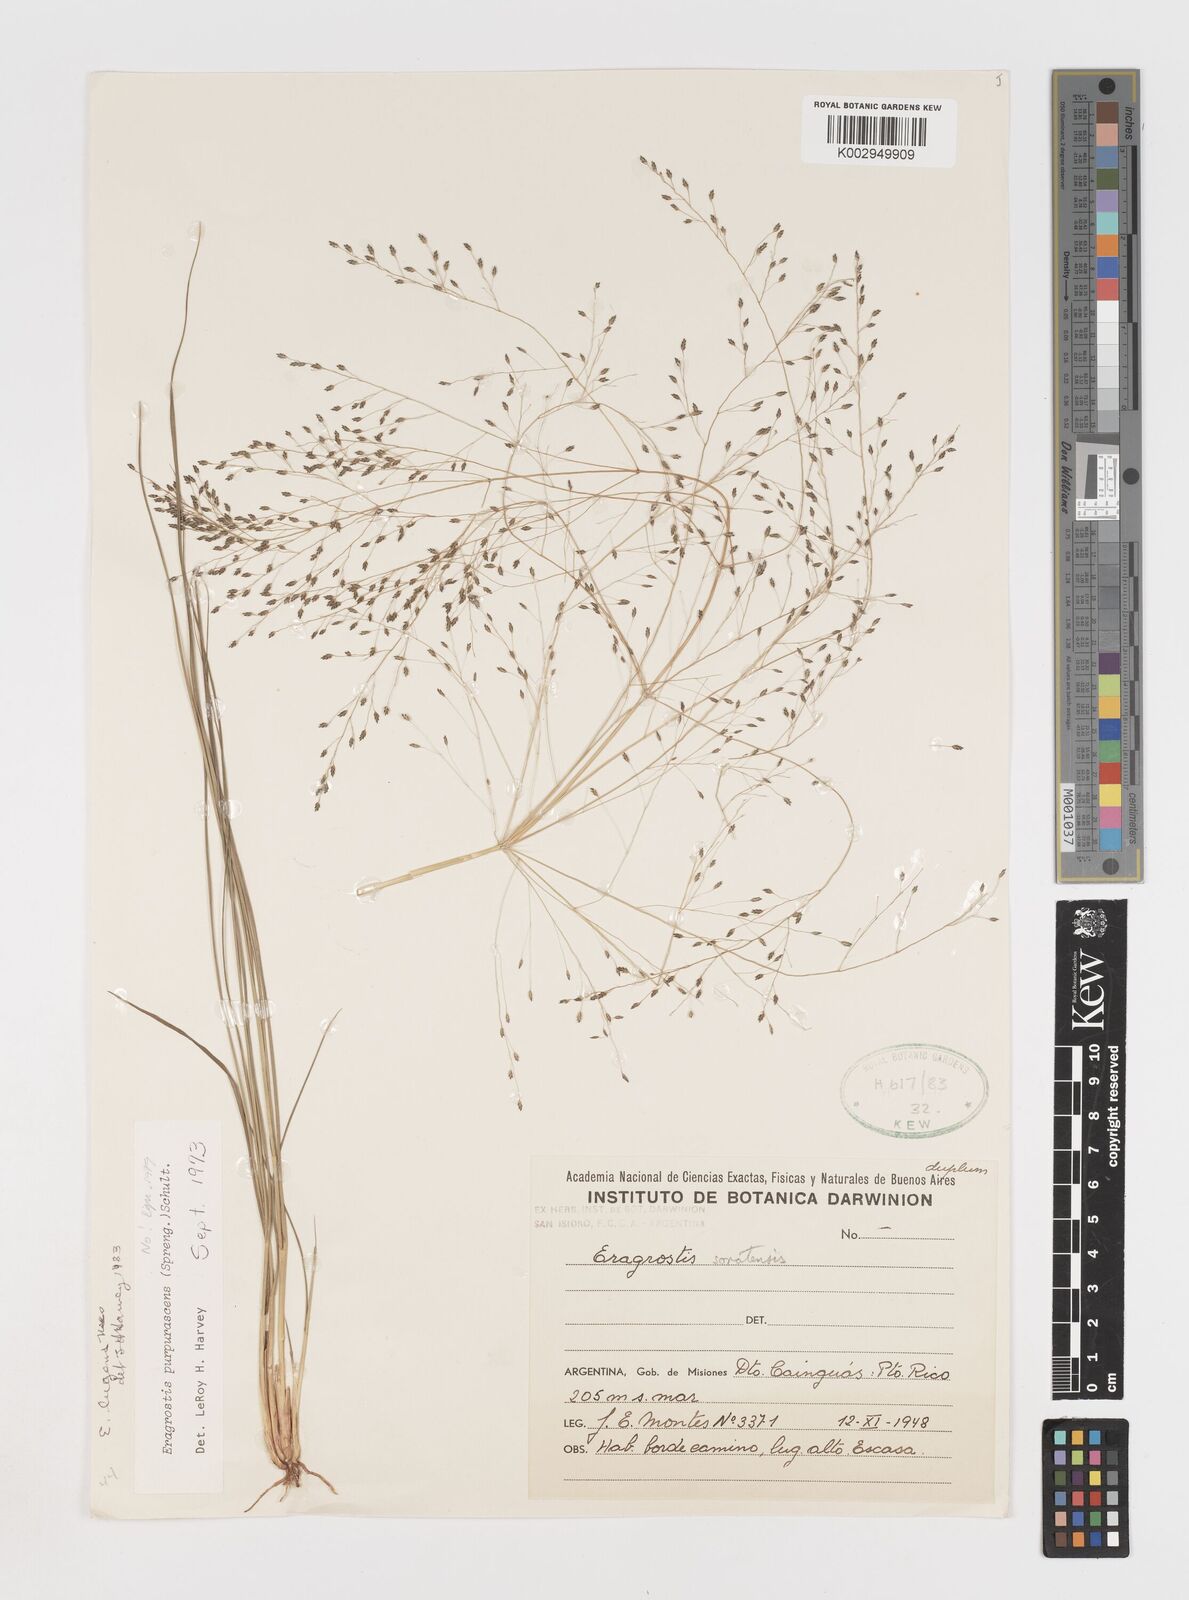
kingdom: Plantae
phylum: Tracheophyta
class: Liliopsida
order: Poales
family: Poaceae
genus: Eragrostis
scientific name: Eragrostis lugens
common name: Mourning love grass
